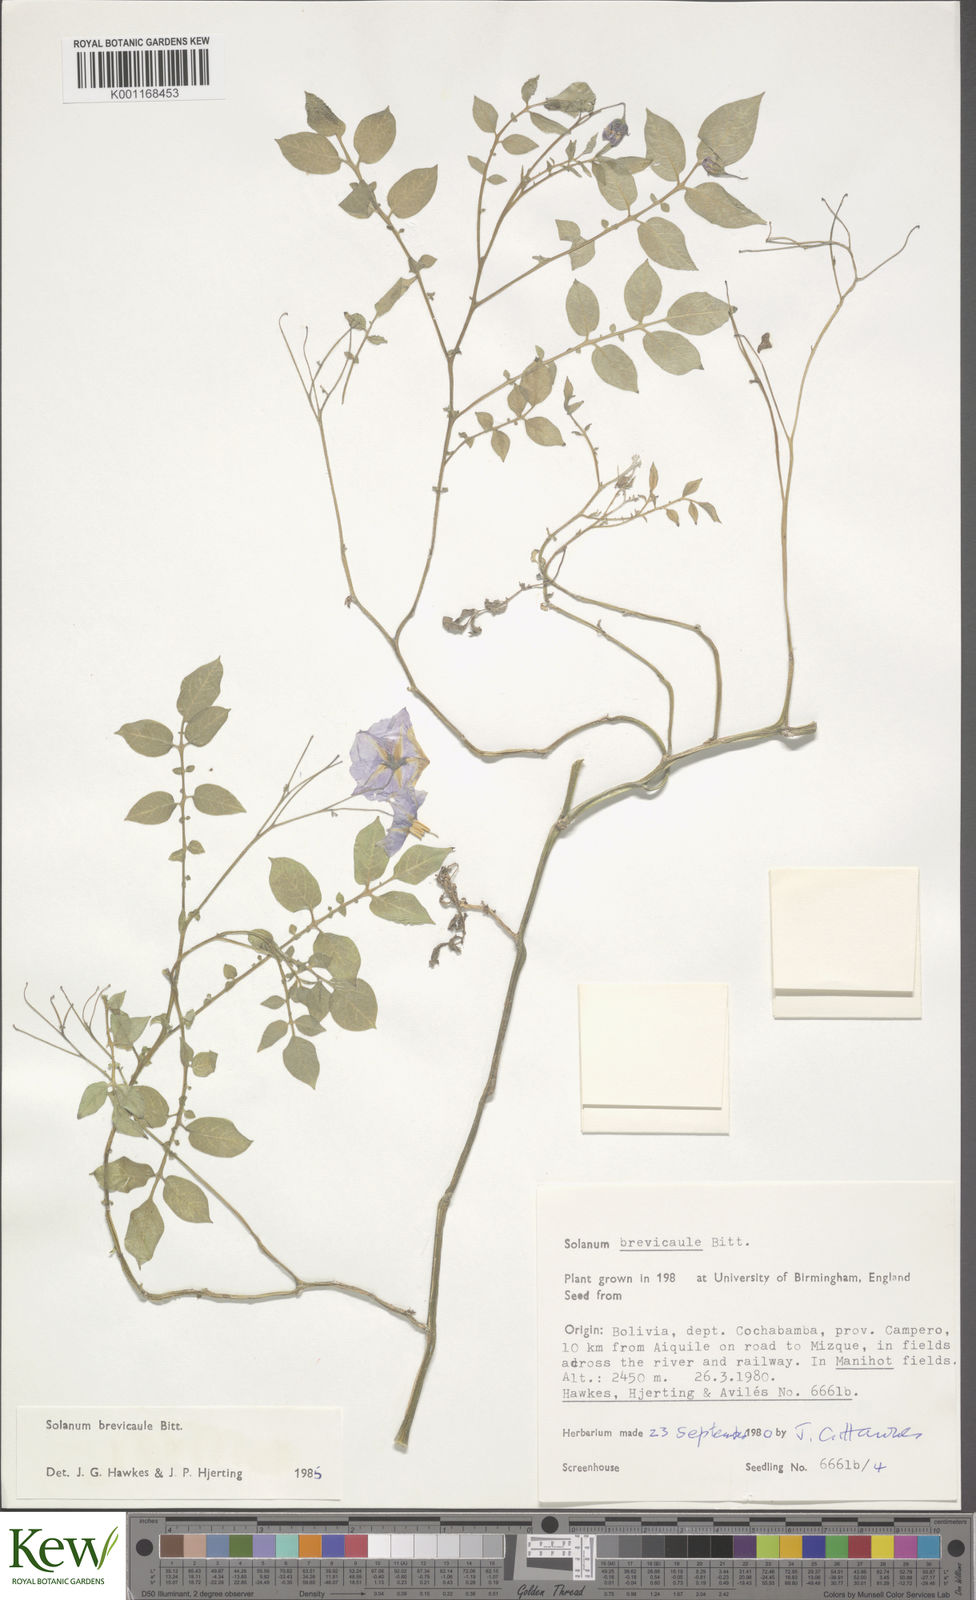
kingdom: Plantae
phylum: Tracheophyta
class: Magnoliopsida
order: Solanales
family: Solanaceae
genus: Solanum
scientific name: Solanum brevicaule
